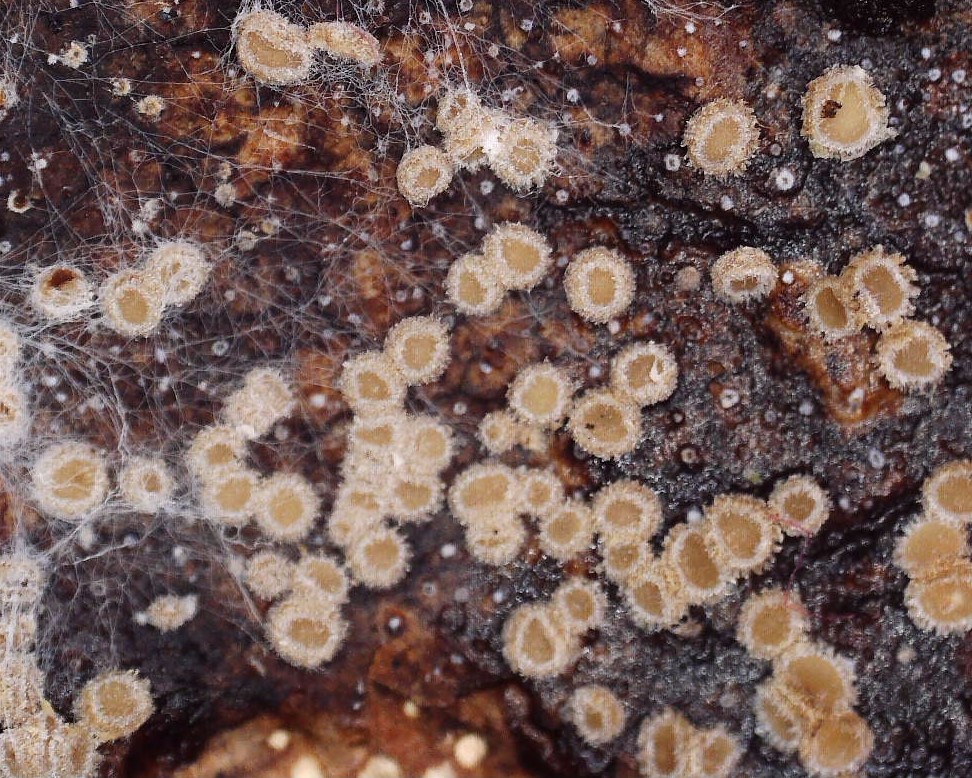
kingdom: Fungi
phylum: Ascomycota
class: Leotiomycetes
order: Helotiales
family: Solenopeziaceae
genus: Lasiobelonium
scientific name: Lasiobelonium variegatum
